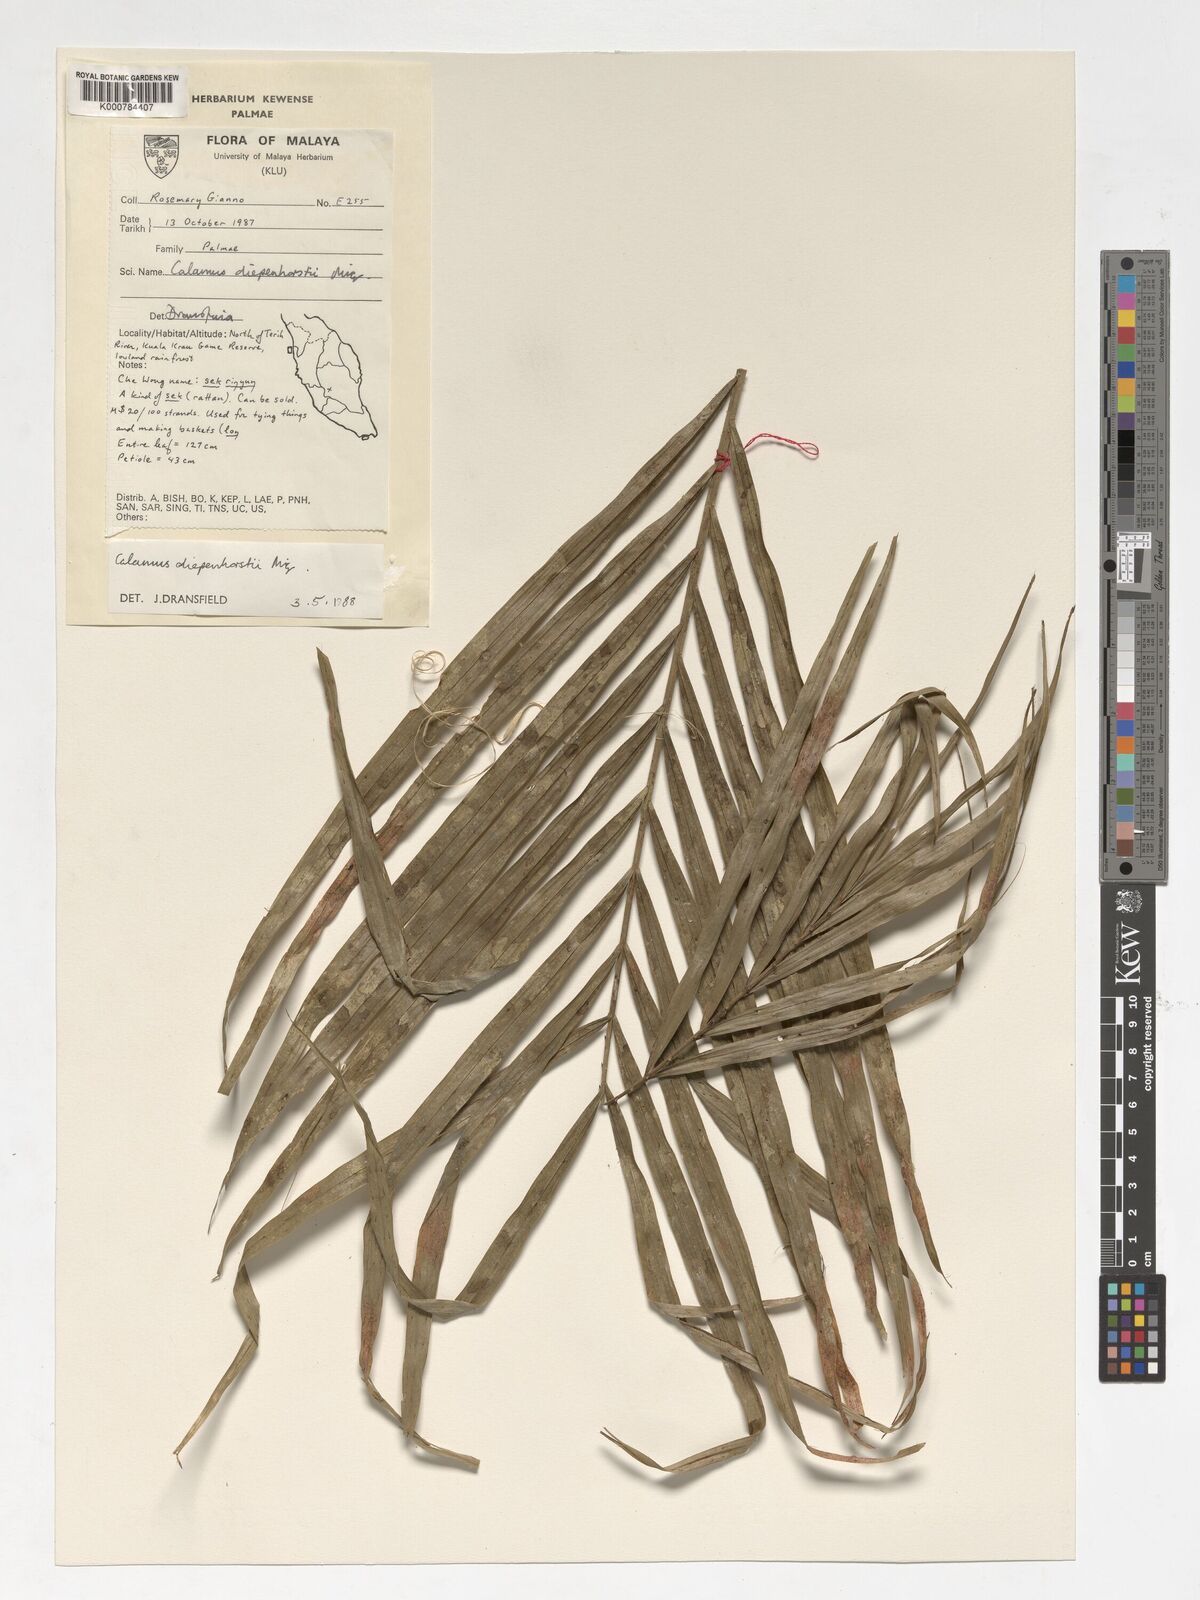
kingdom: Plantae
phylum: Tracheophyta
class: Liliopsida
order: Arecales
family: Arecaceae
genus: Calamus
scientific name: Calamus diepenhorstii
